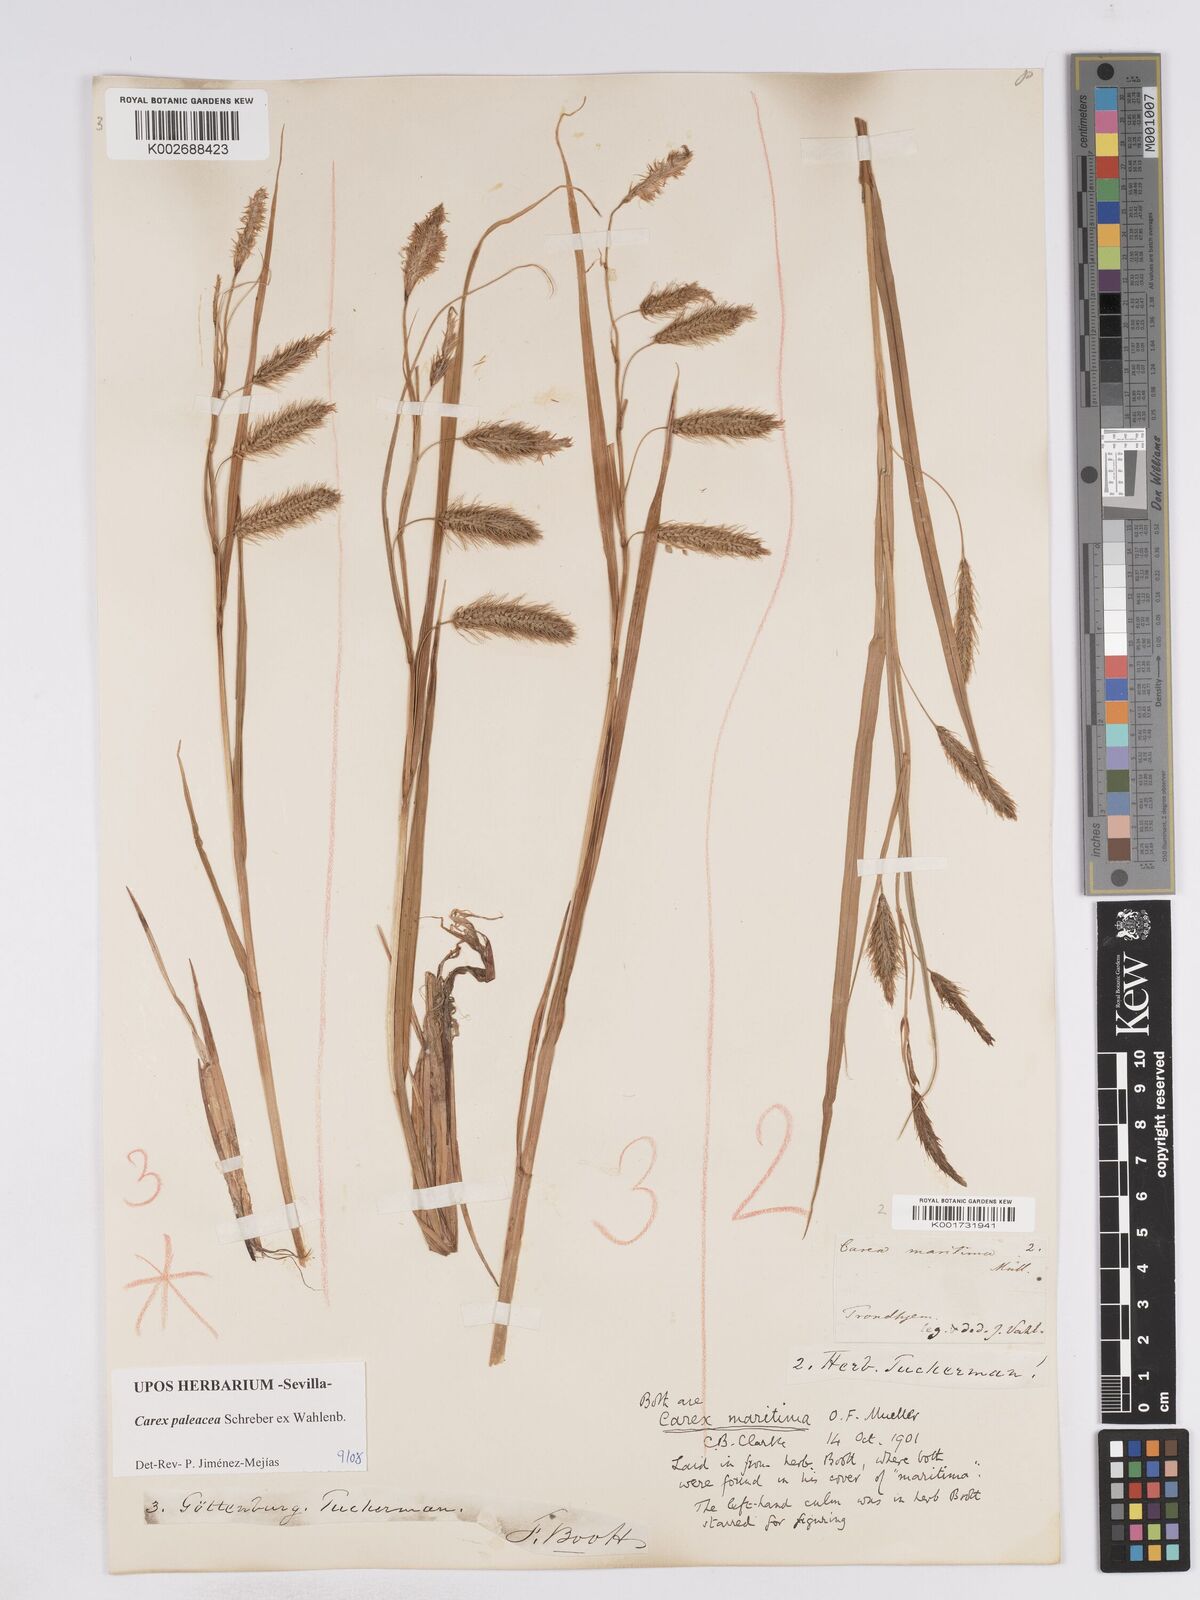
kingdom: Plantae
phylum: Tracheophyta
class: Liliopsida
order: Poales
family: Cyperaceae
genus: Carex
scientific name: Carex paleacea
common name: Chaffy sedge
